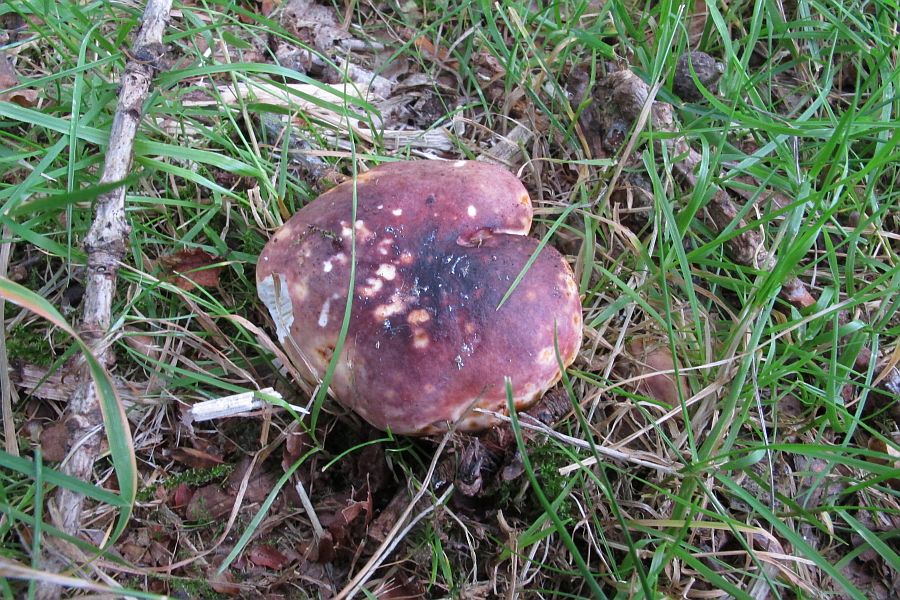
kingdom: Fungi
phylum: Basidiomycota
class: Agaricomycetes
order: Russulales
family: Russulaceae
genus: Russula
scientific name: Russula atropurpurea
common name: purpurbroget skørhat
